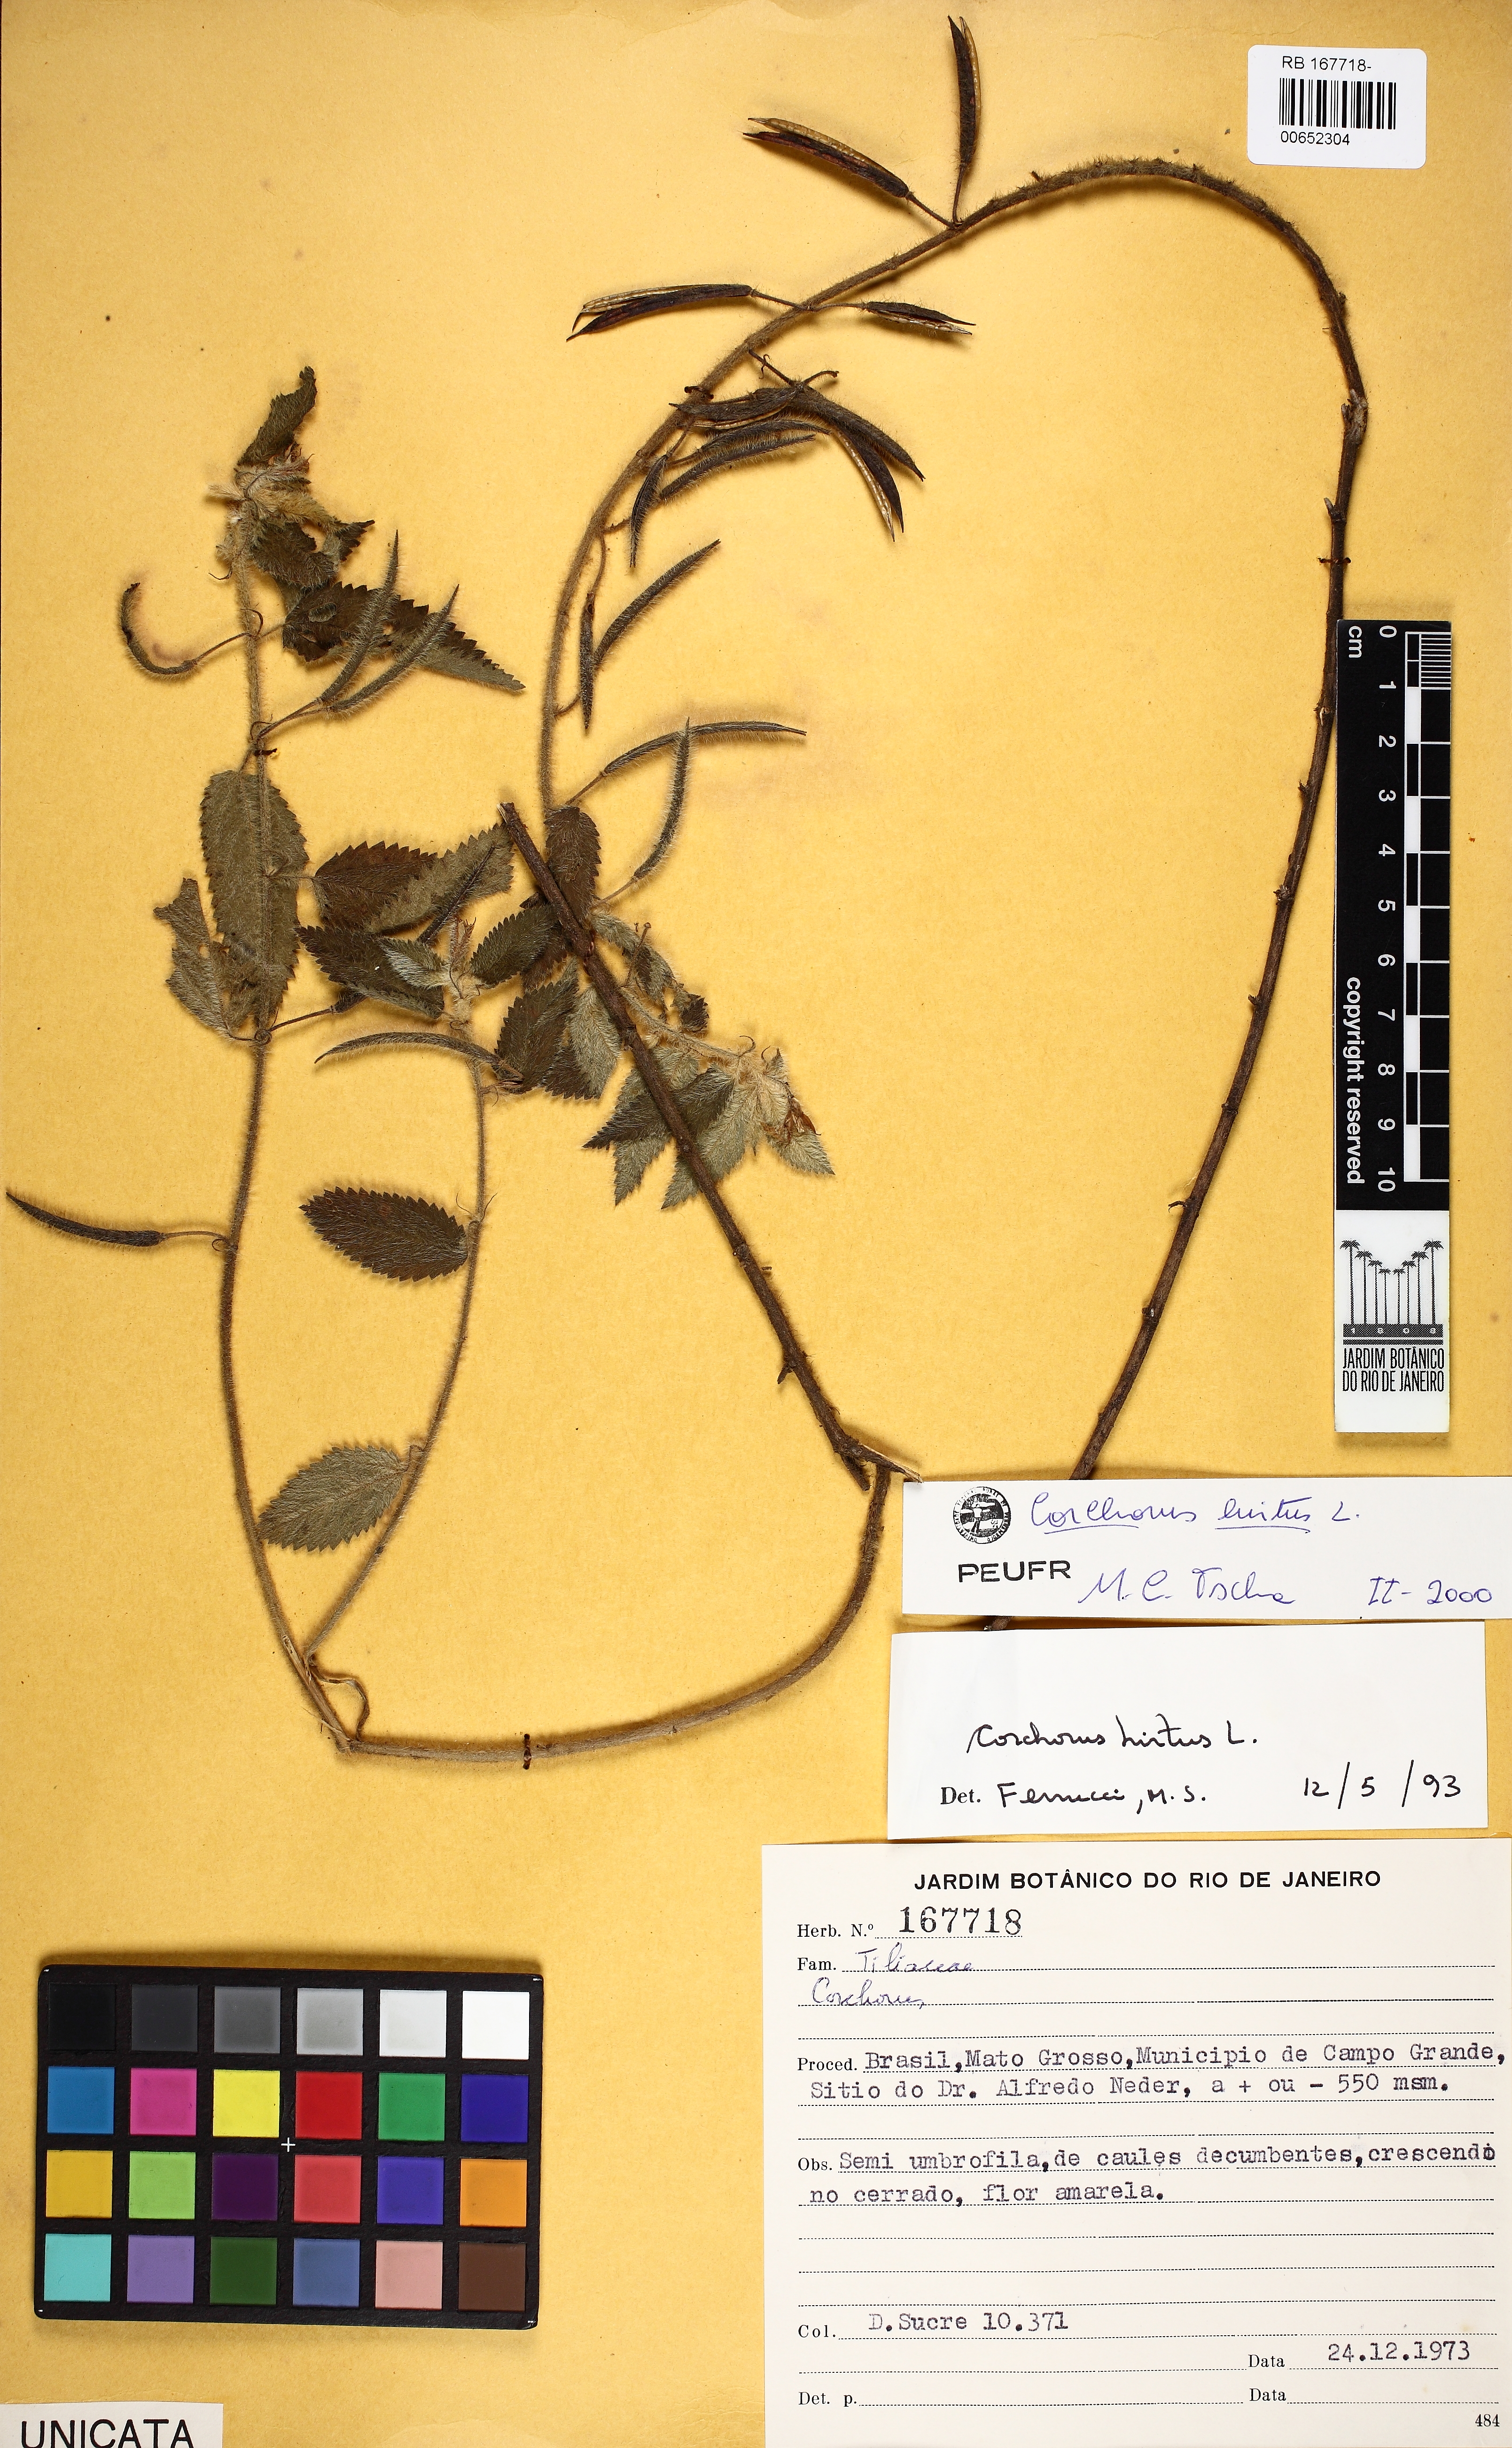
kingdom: Plantae
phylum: Tracheophyta
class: Magnoliopsida
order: Malvales
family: Malvaceae
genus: Corchorus
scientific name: Corchorus hirtus
